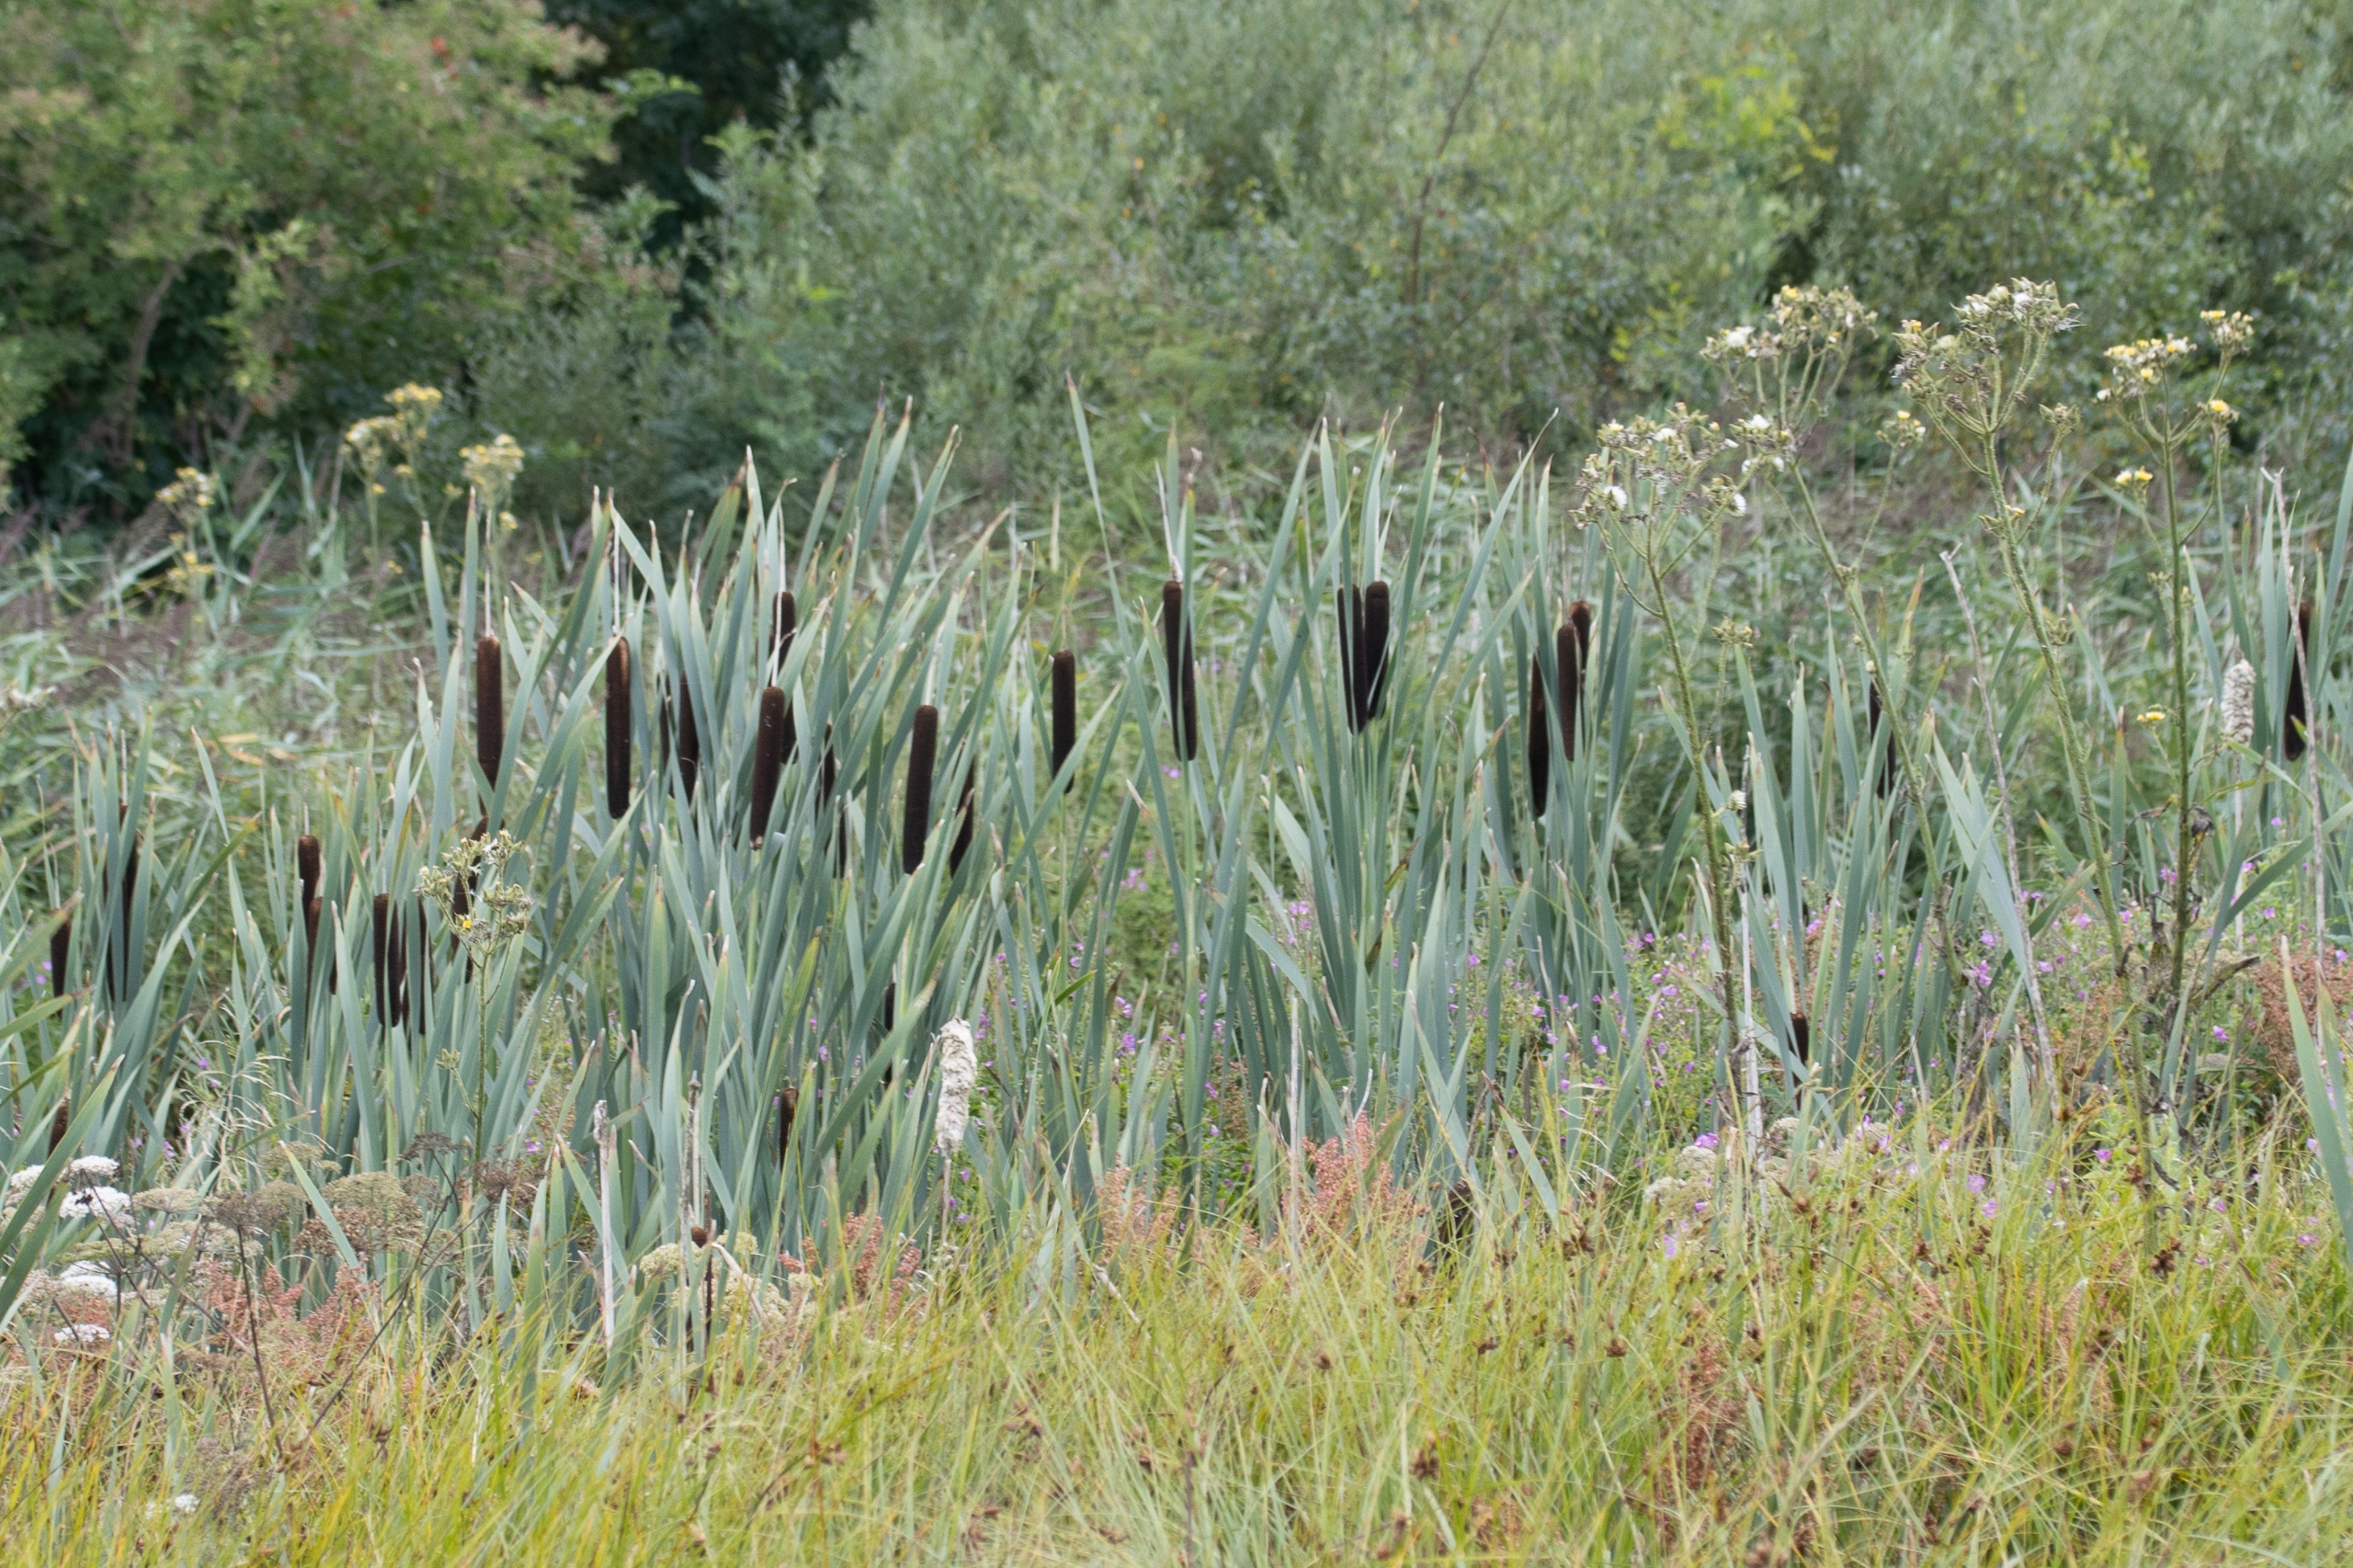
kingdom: Plantae
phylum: Tracheophyta
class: Liliopsida
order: Poales
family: Typhaceae
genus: Typha
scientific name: Typha latifolia
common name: Bredbladet dunhammer
